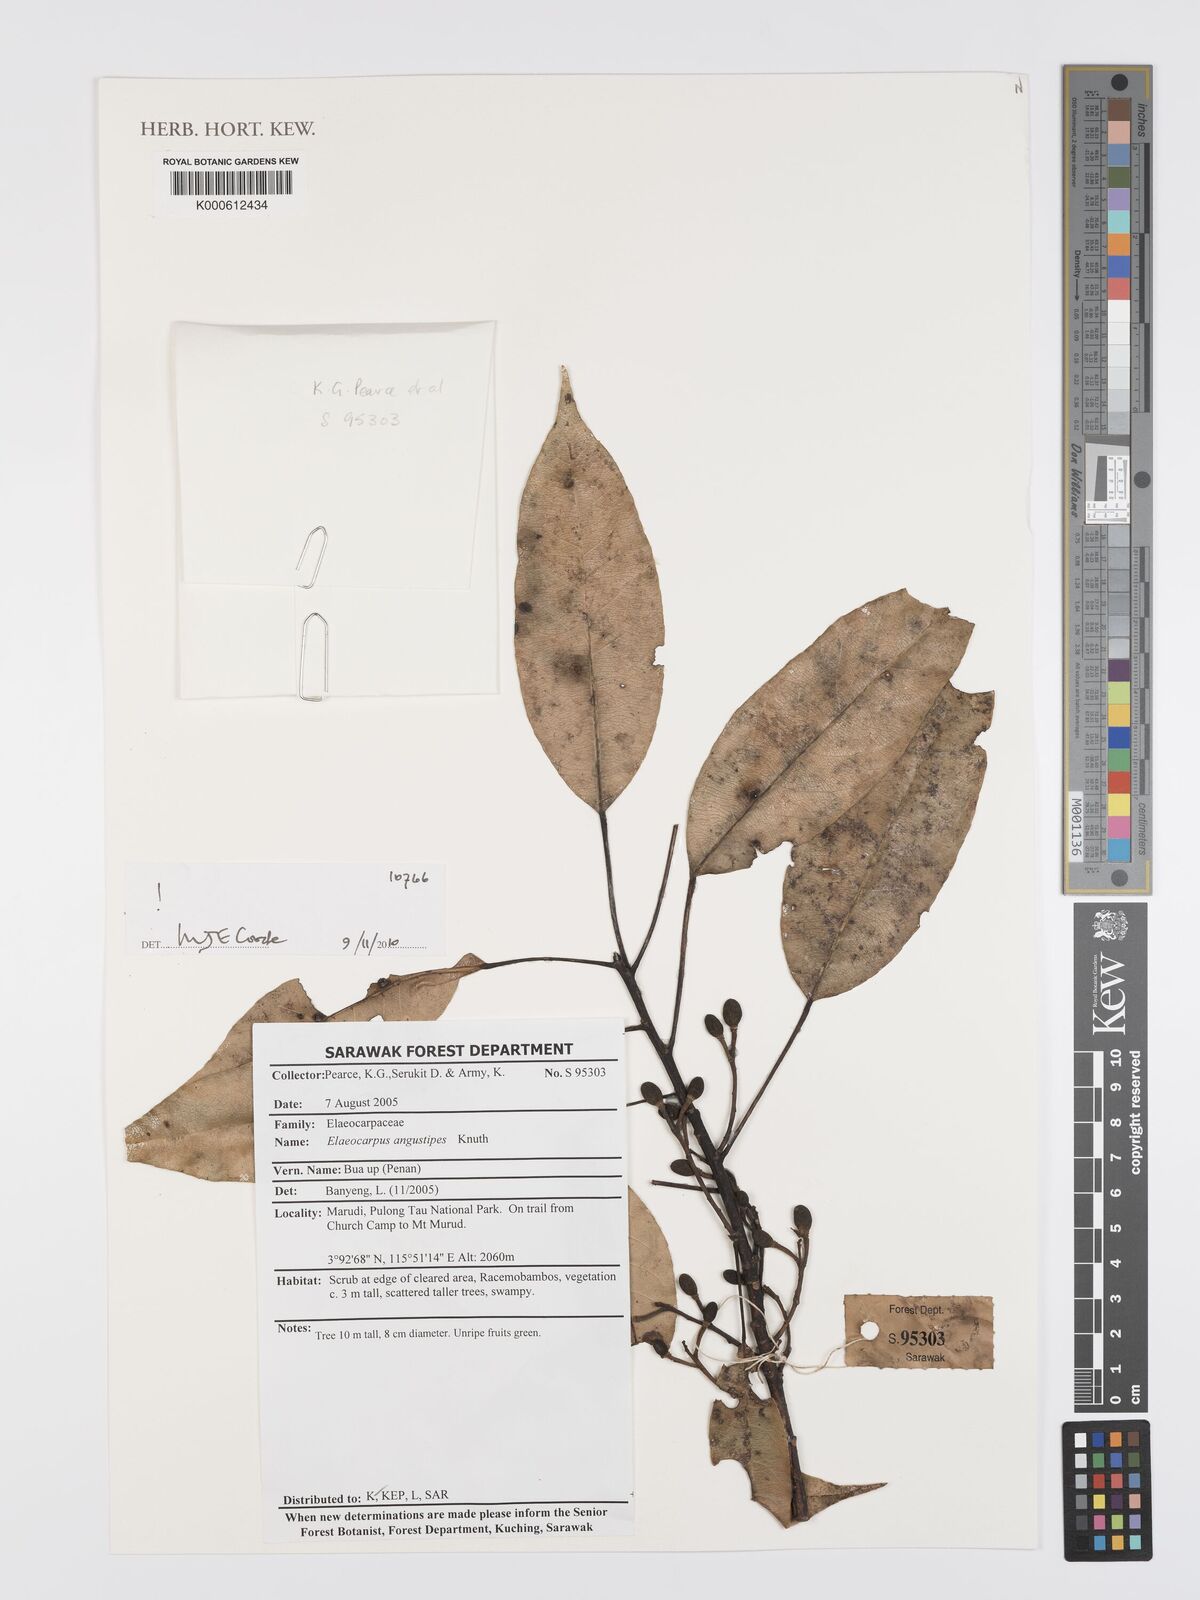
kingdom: Plantae
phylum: Tracheophyta
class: Magnoliopsida
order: Oxalidales
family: Elaeocarpaceae
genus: Elaeocarpus
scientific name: Elaeocarpus angustipes
